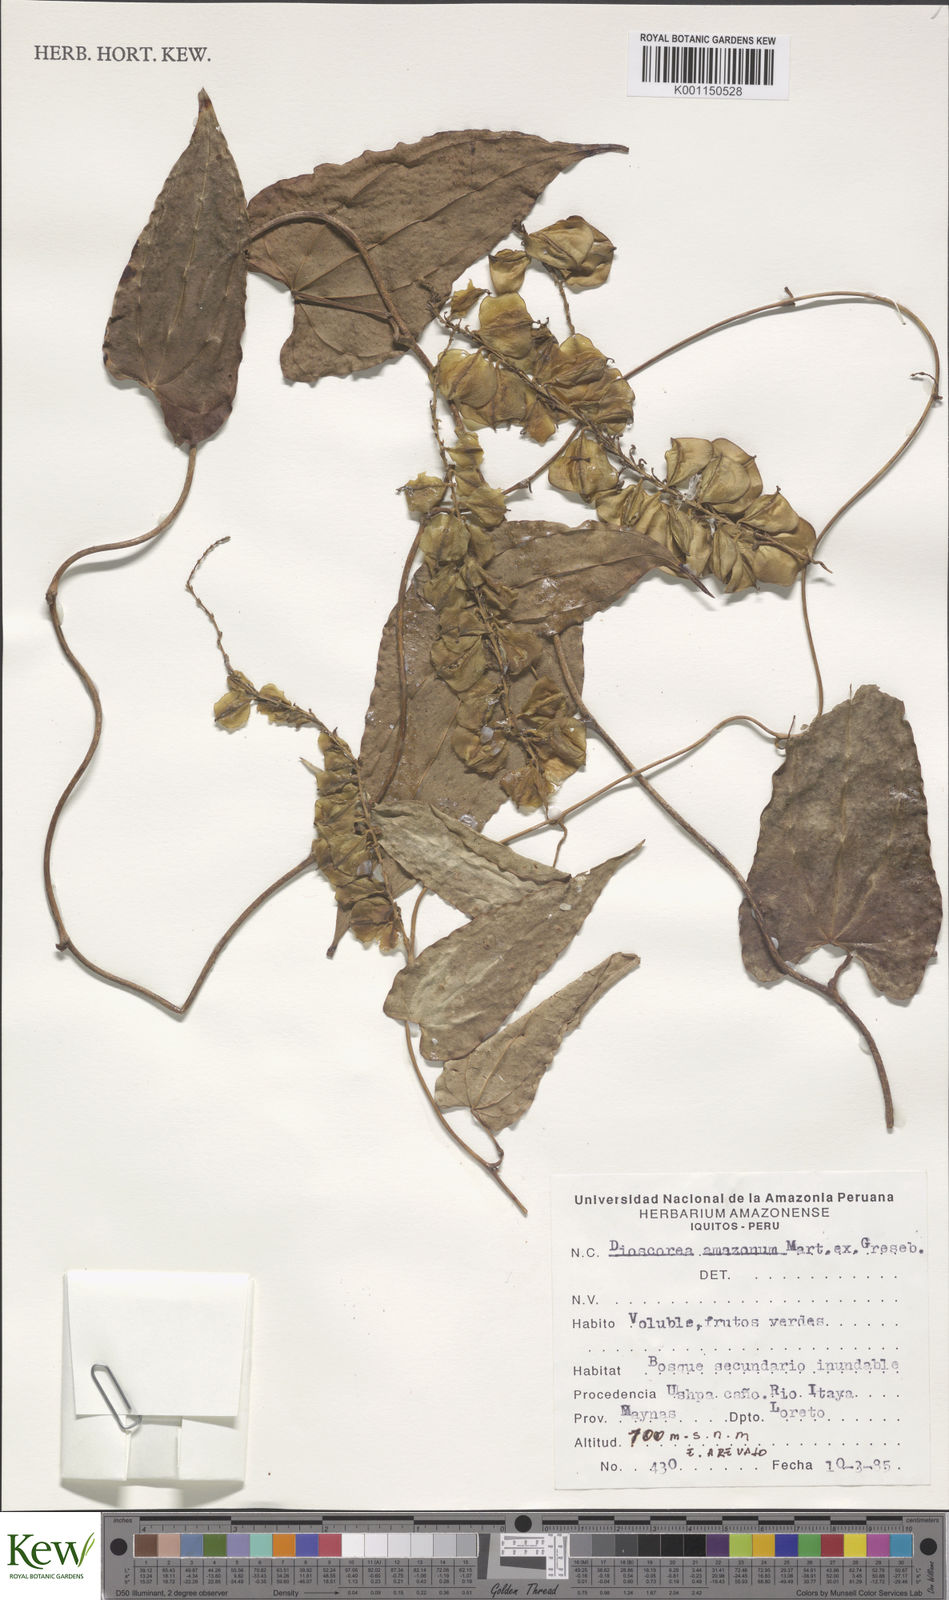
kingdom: Plantae
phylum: Tracheophyta
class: Liliopsida
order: Dioscoreales
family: Dioscoreaceae
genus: Dioscorea
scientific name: Dioscorea amazonum
